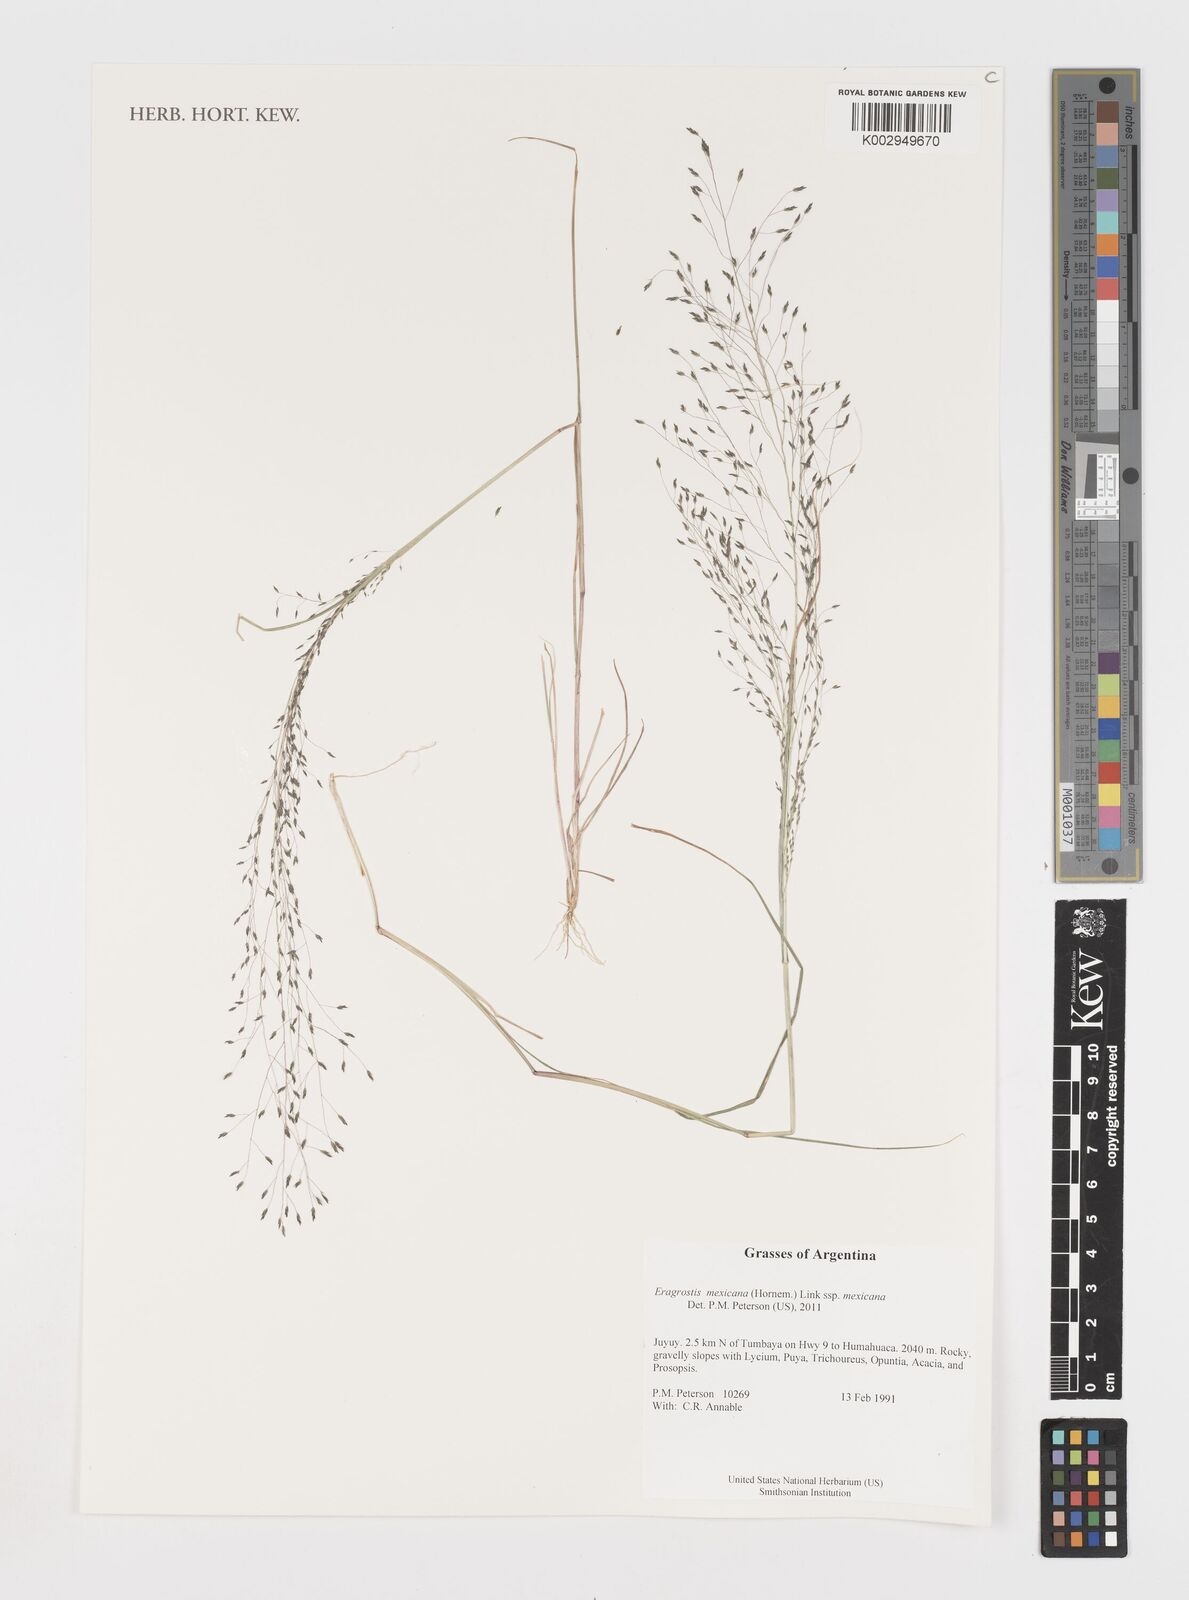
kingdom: Plantae
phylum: Tracheophyta
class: Liliopsida
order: Poales
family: Poaceae
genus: Eragrostis
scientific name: Eragrostis mexicana
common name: Mexican love grass
